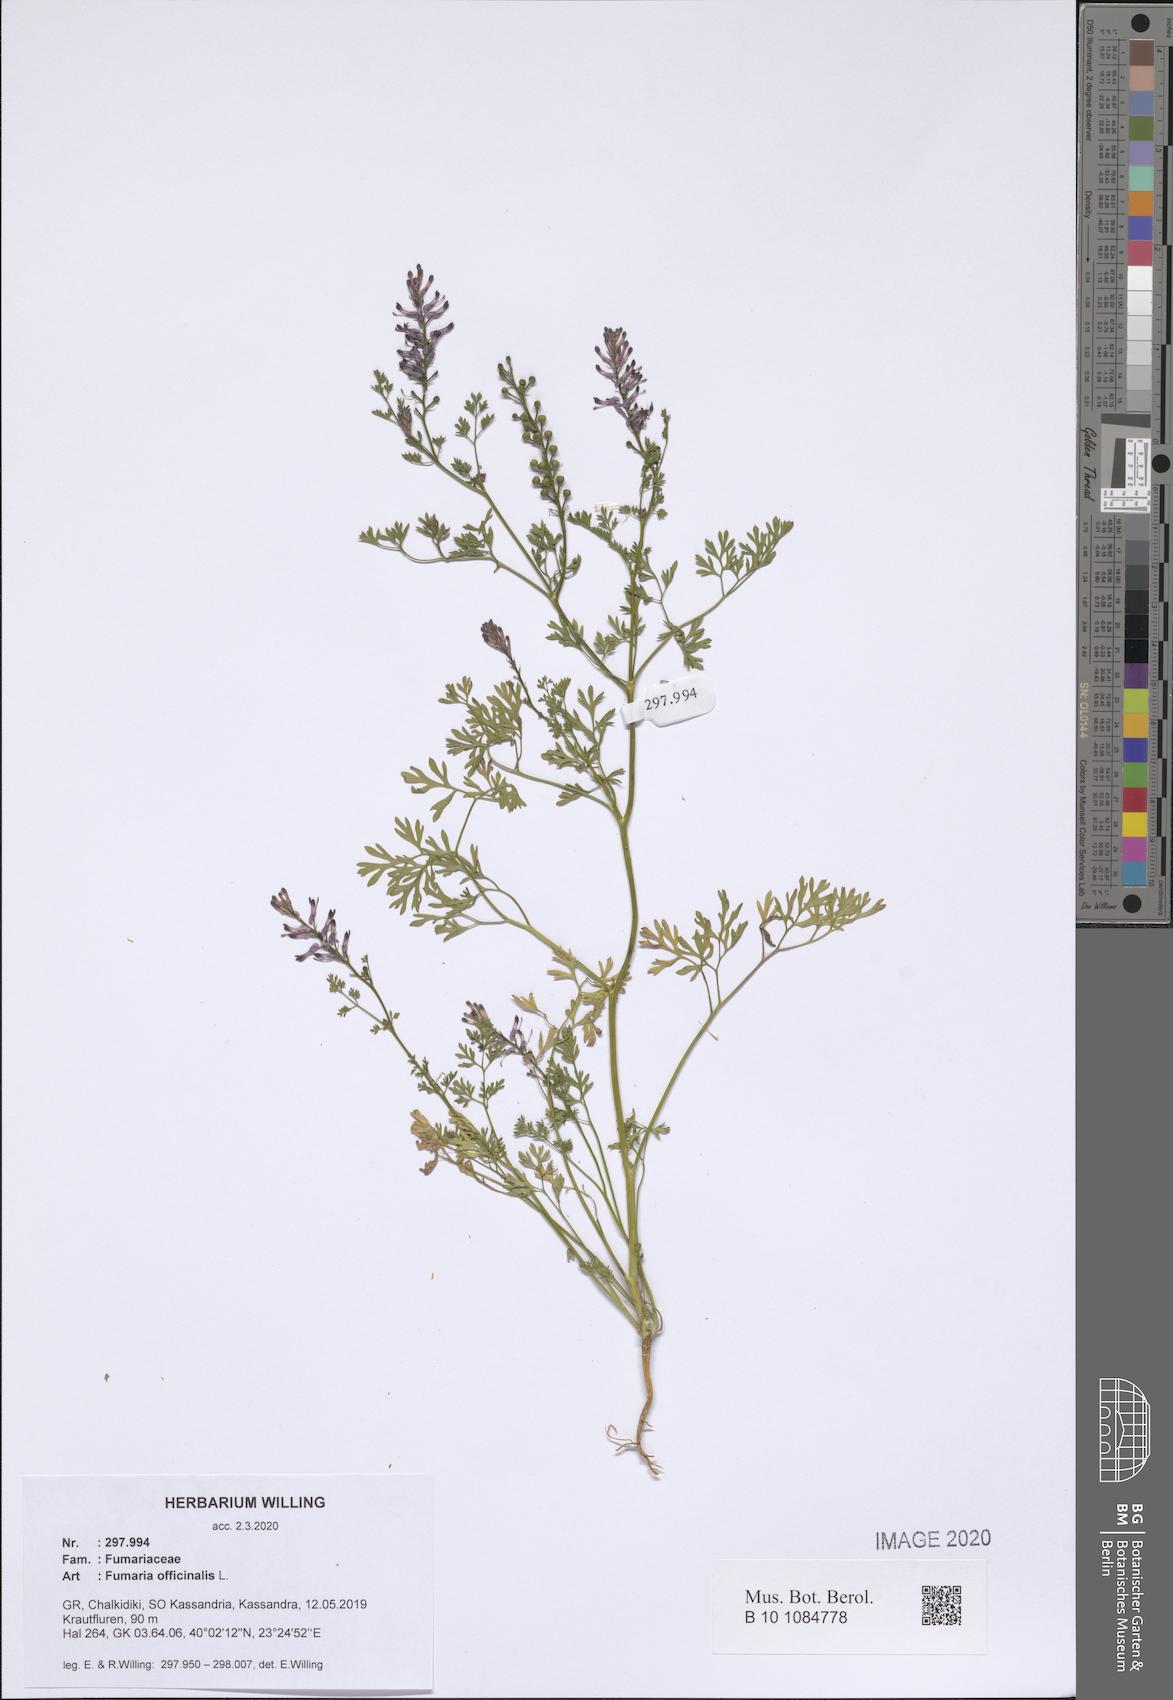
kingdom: Plantae
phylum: Tracheophyta
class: Magnoliopsida
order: Ranunculales
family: Papaveraceae
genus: Fumaria
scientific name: Fumaria officinalis
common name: Common fumitory
